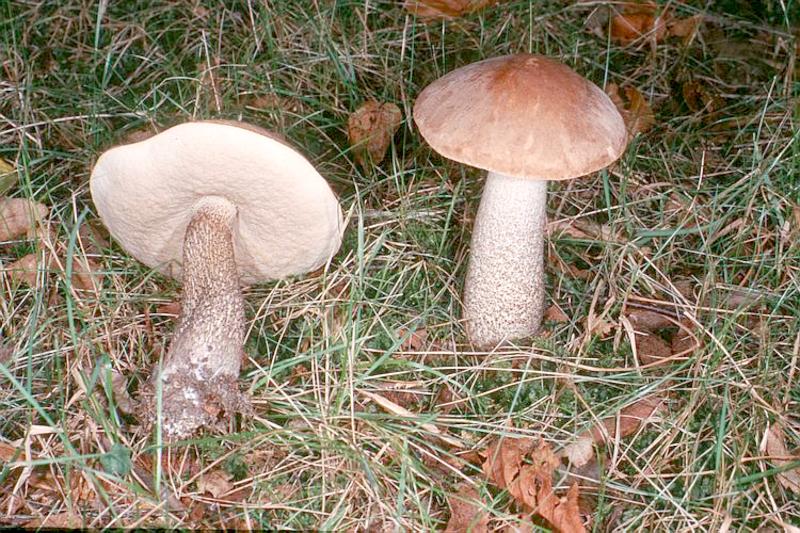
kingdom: Fungi
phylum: Basidiomycota
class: Agaricomycetes
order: Boletales
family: Boletaceae
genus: Leccinum
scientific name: Leccinum scabrum
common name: Blushing bolete
